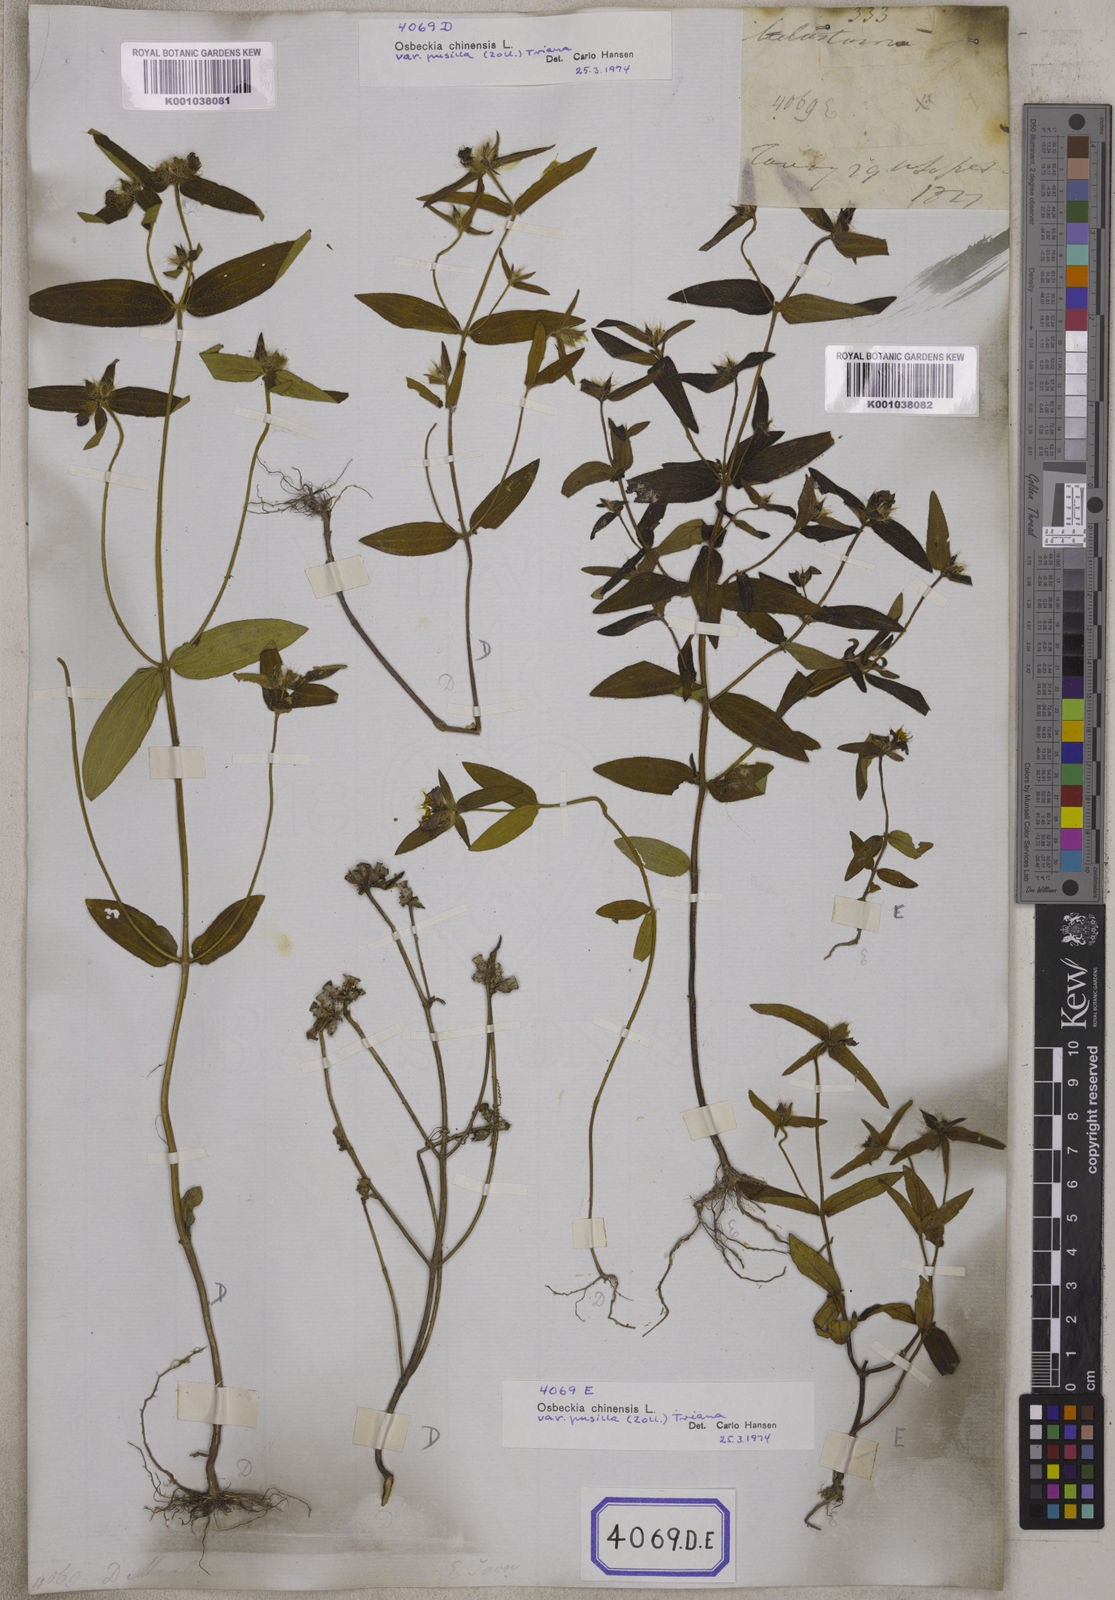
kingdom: Plantae
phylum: Tracheophyta
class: Magnoliopsida
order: Myrtales
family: Melastomataceae
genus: Osbeckia
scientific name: Osbeckia zeylanica
